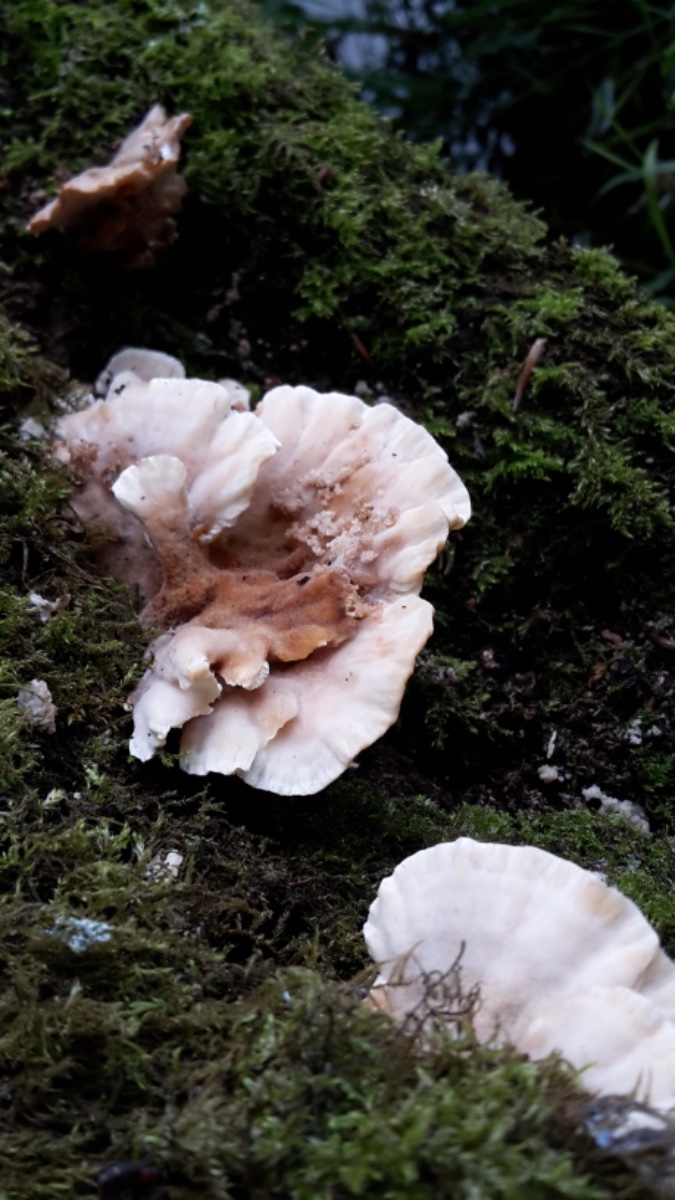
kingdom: Fungi
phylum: Basidiomycota
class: Agaricomycetes
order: Polyporales
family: Podoscyphaceae
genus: Abortiporus
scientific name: Abortiporus biennis
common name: rødmende pjalteporesvamp
